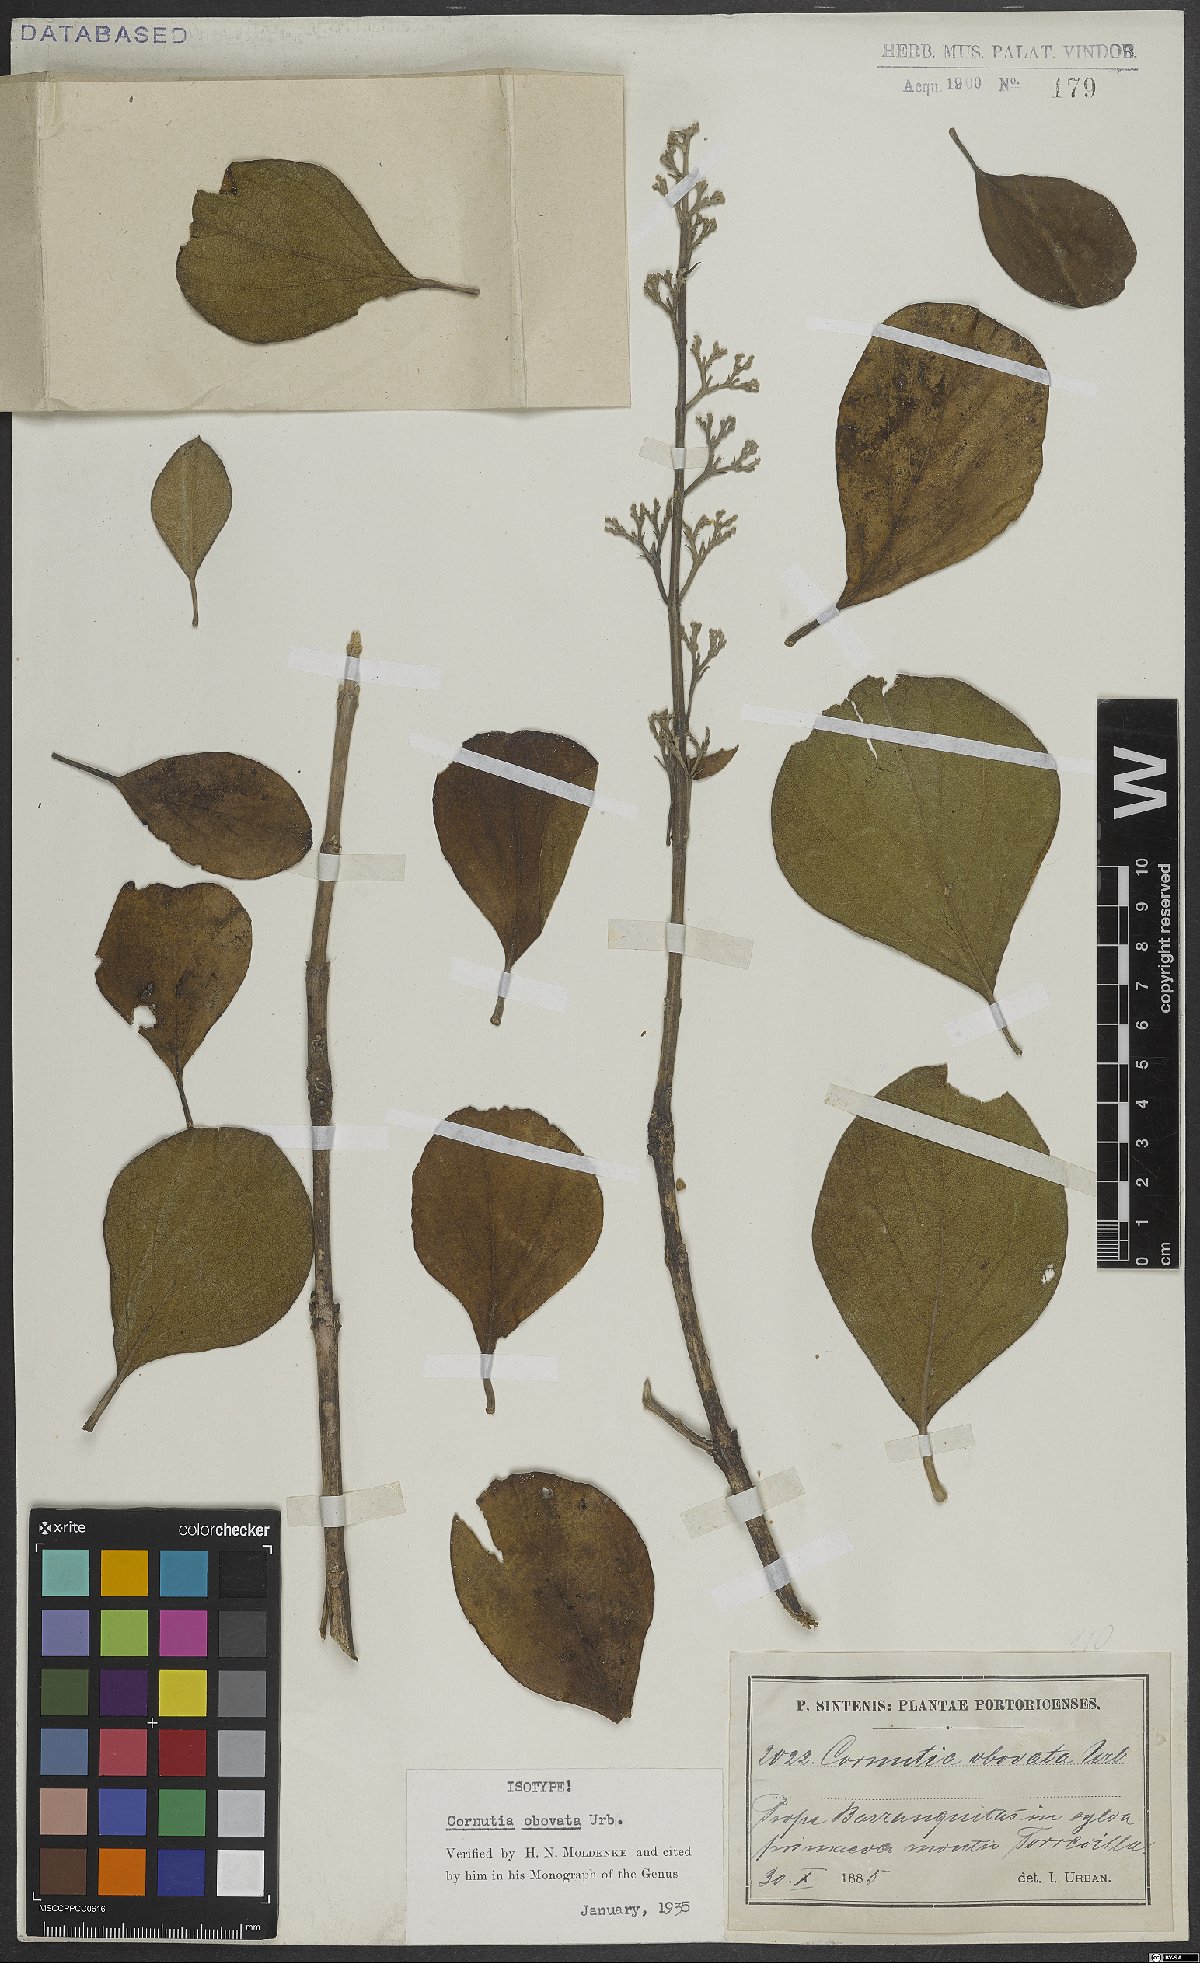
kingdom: Plantae
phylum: Tracheophyta
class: Magnoliopsida
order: Lamiales
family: Lamiaceae
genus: Cornutia
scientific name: Cornutia obovata
